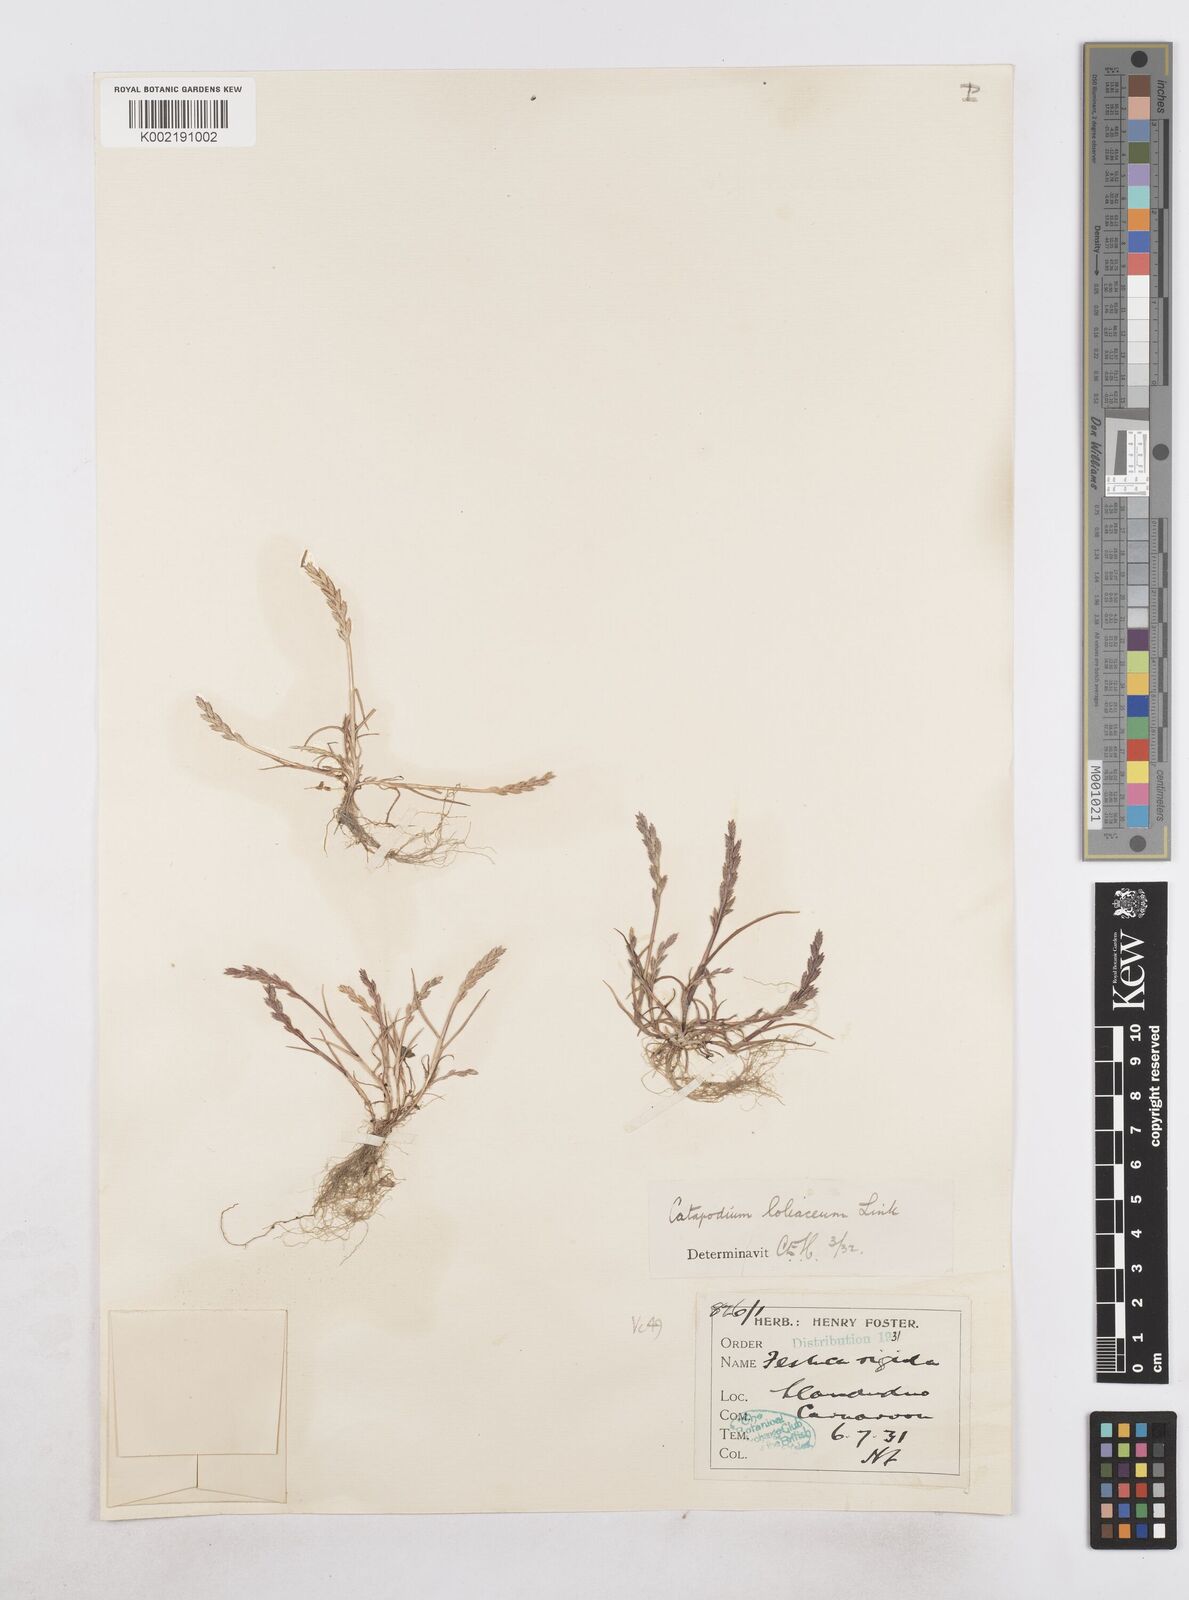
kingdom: Plantae
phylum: Tracheophyta
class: Liliopsida
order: Poales
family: Poaceae
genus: Catapodium
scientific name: Catapodium marinum
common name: Sea fern-grass
